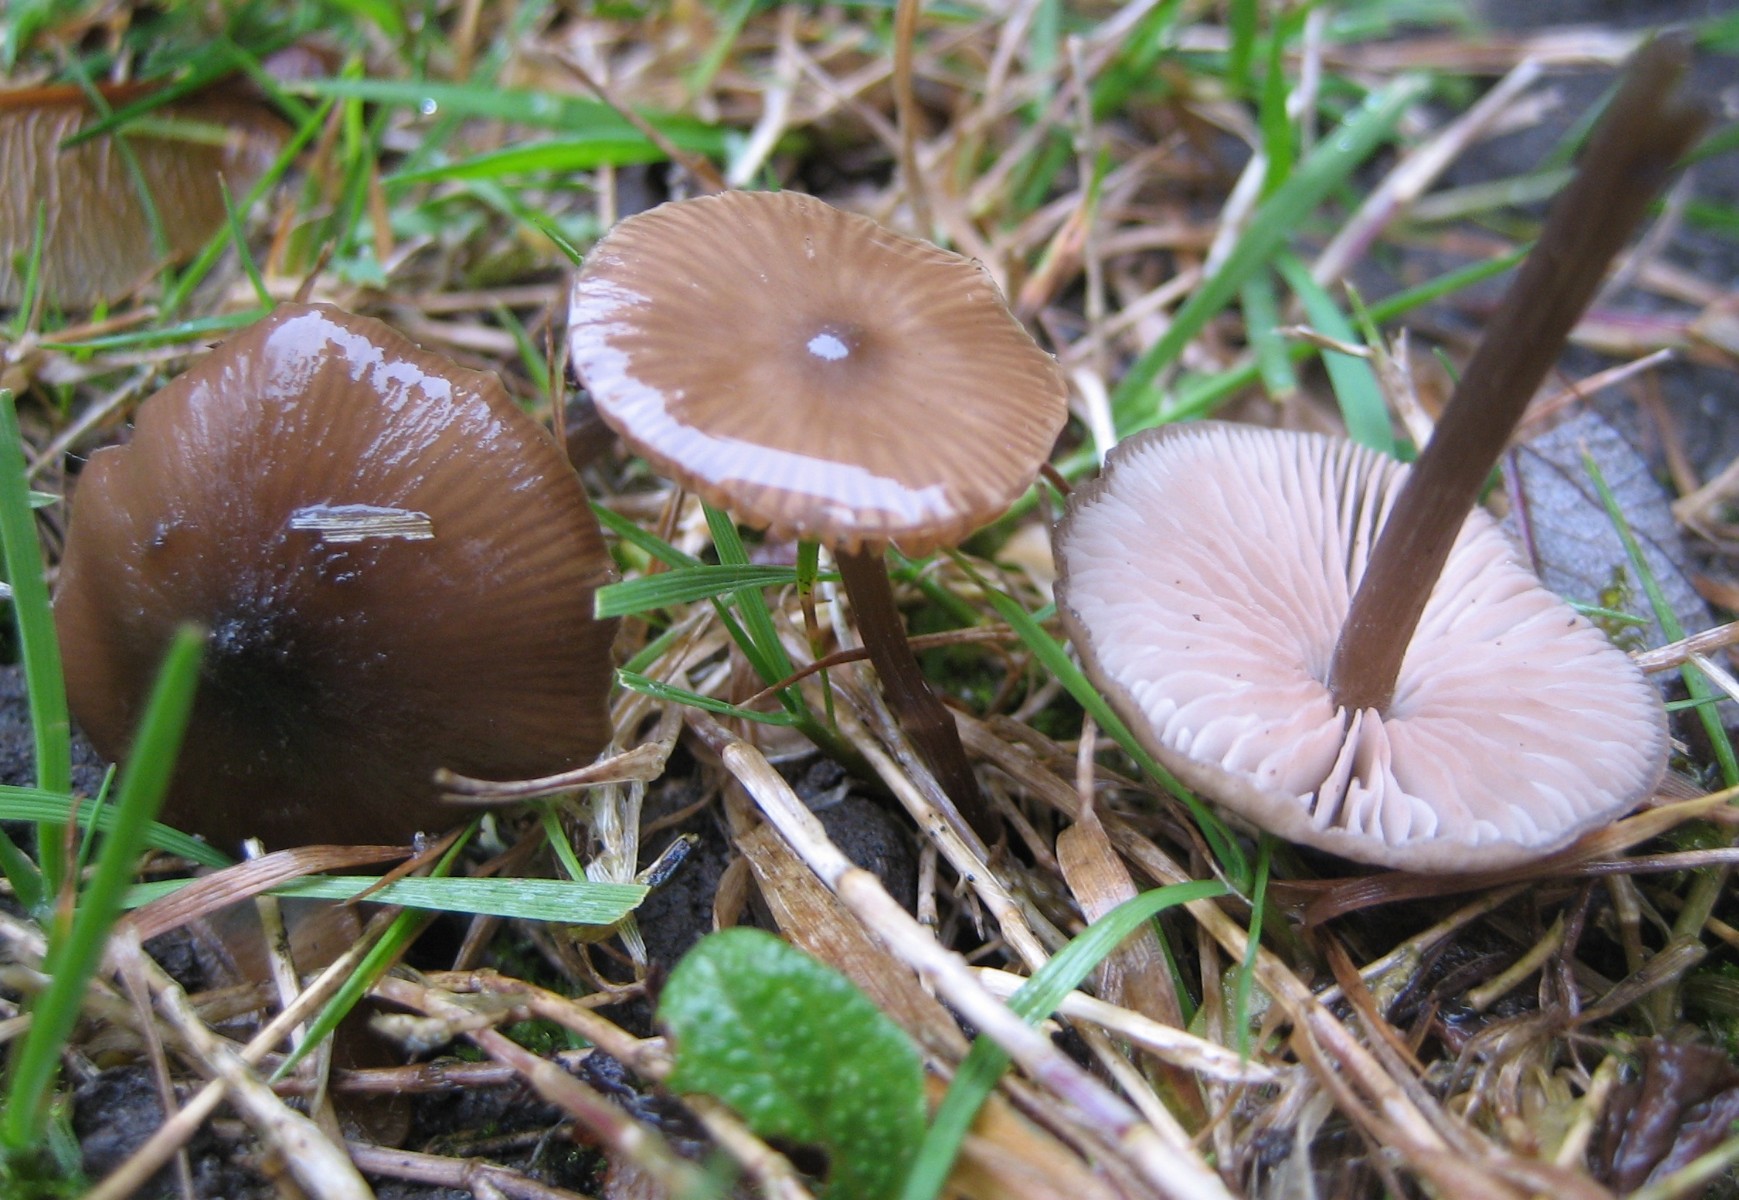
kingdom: Fungi
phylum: Basidiomycota
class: Agaricomycetes
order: Agaricales
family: Entolomataceae
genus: Entoloma
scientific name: Entoloma
